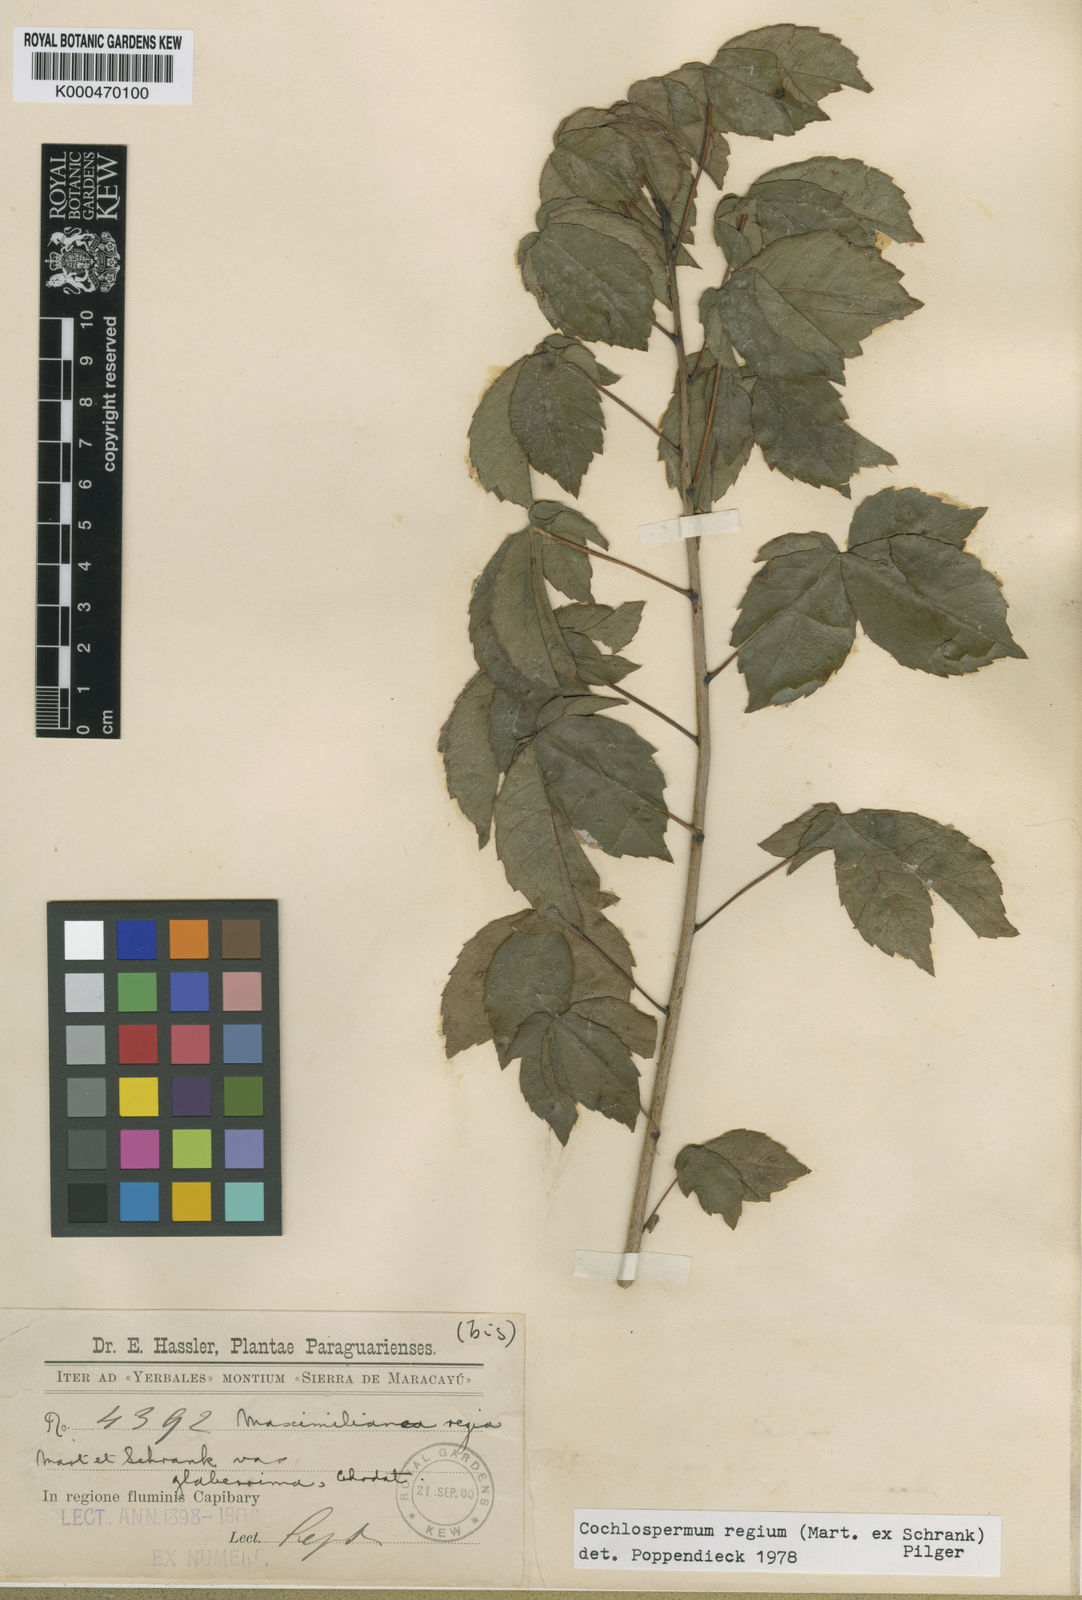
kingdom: Plantae
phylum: Tracheophyta
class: Magnoliopsida
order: Malvales
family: Cochlospermaceae
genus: Cochlospermum
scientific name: Cochlospermum regium
